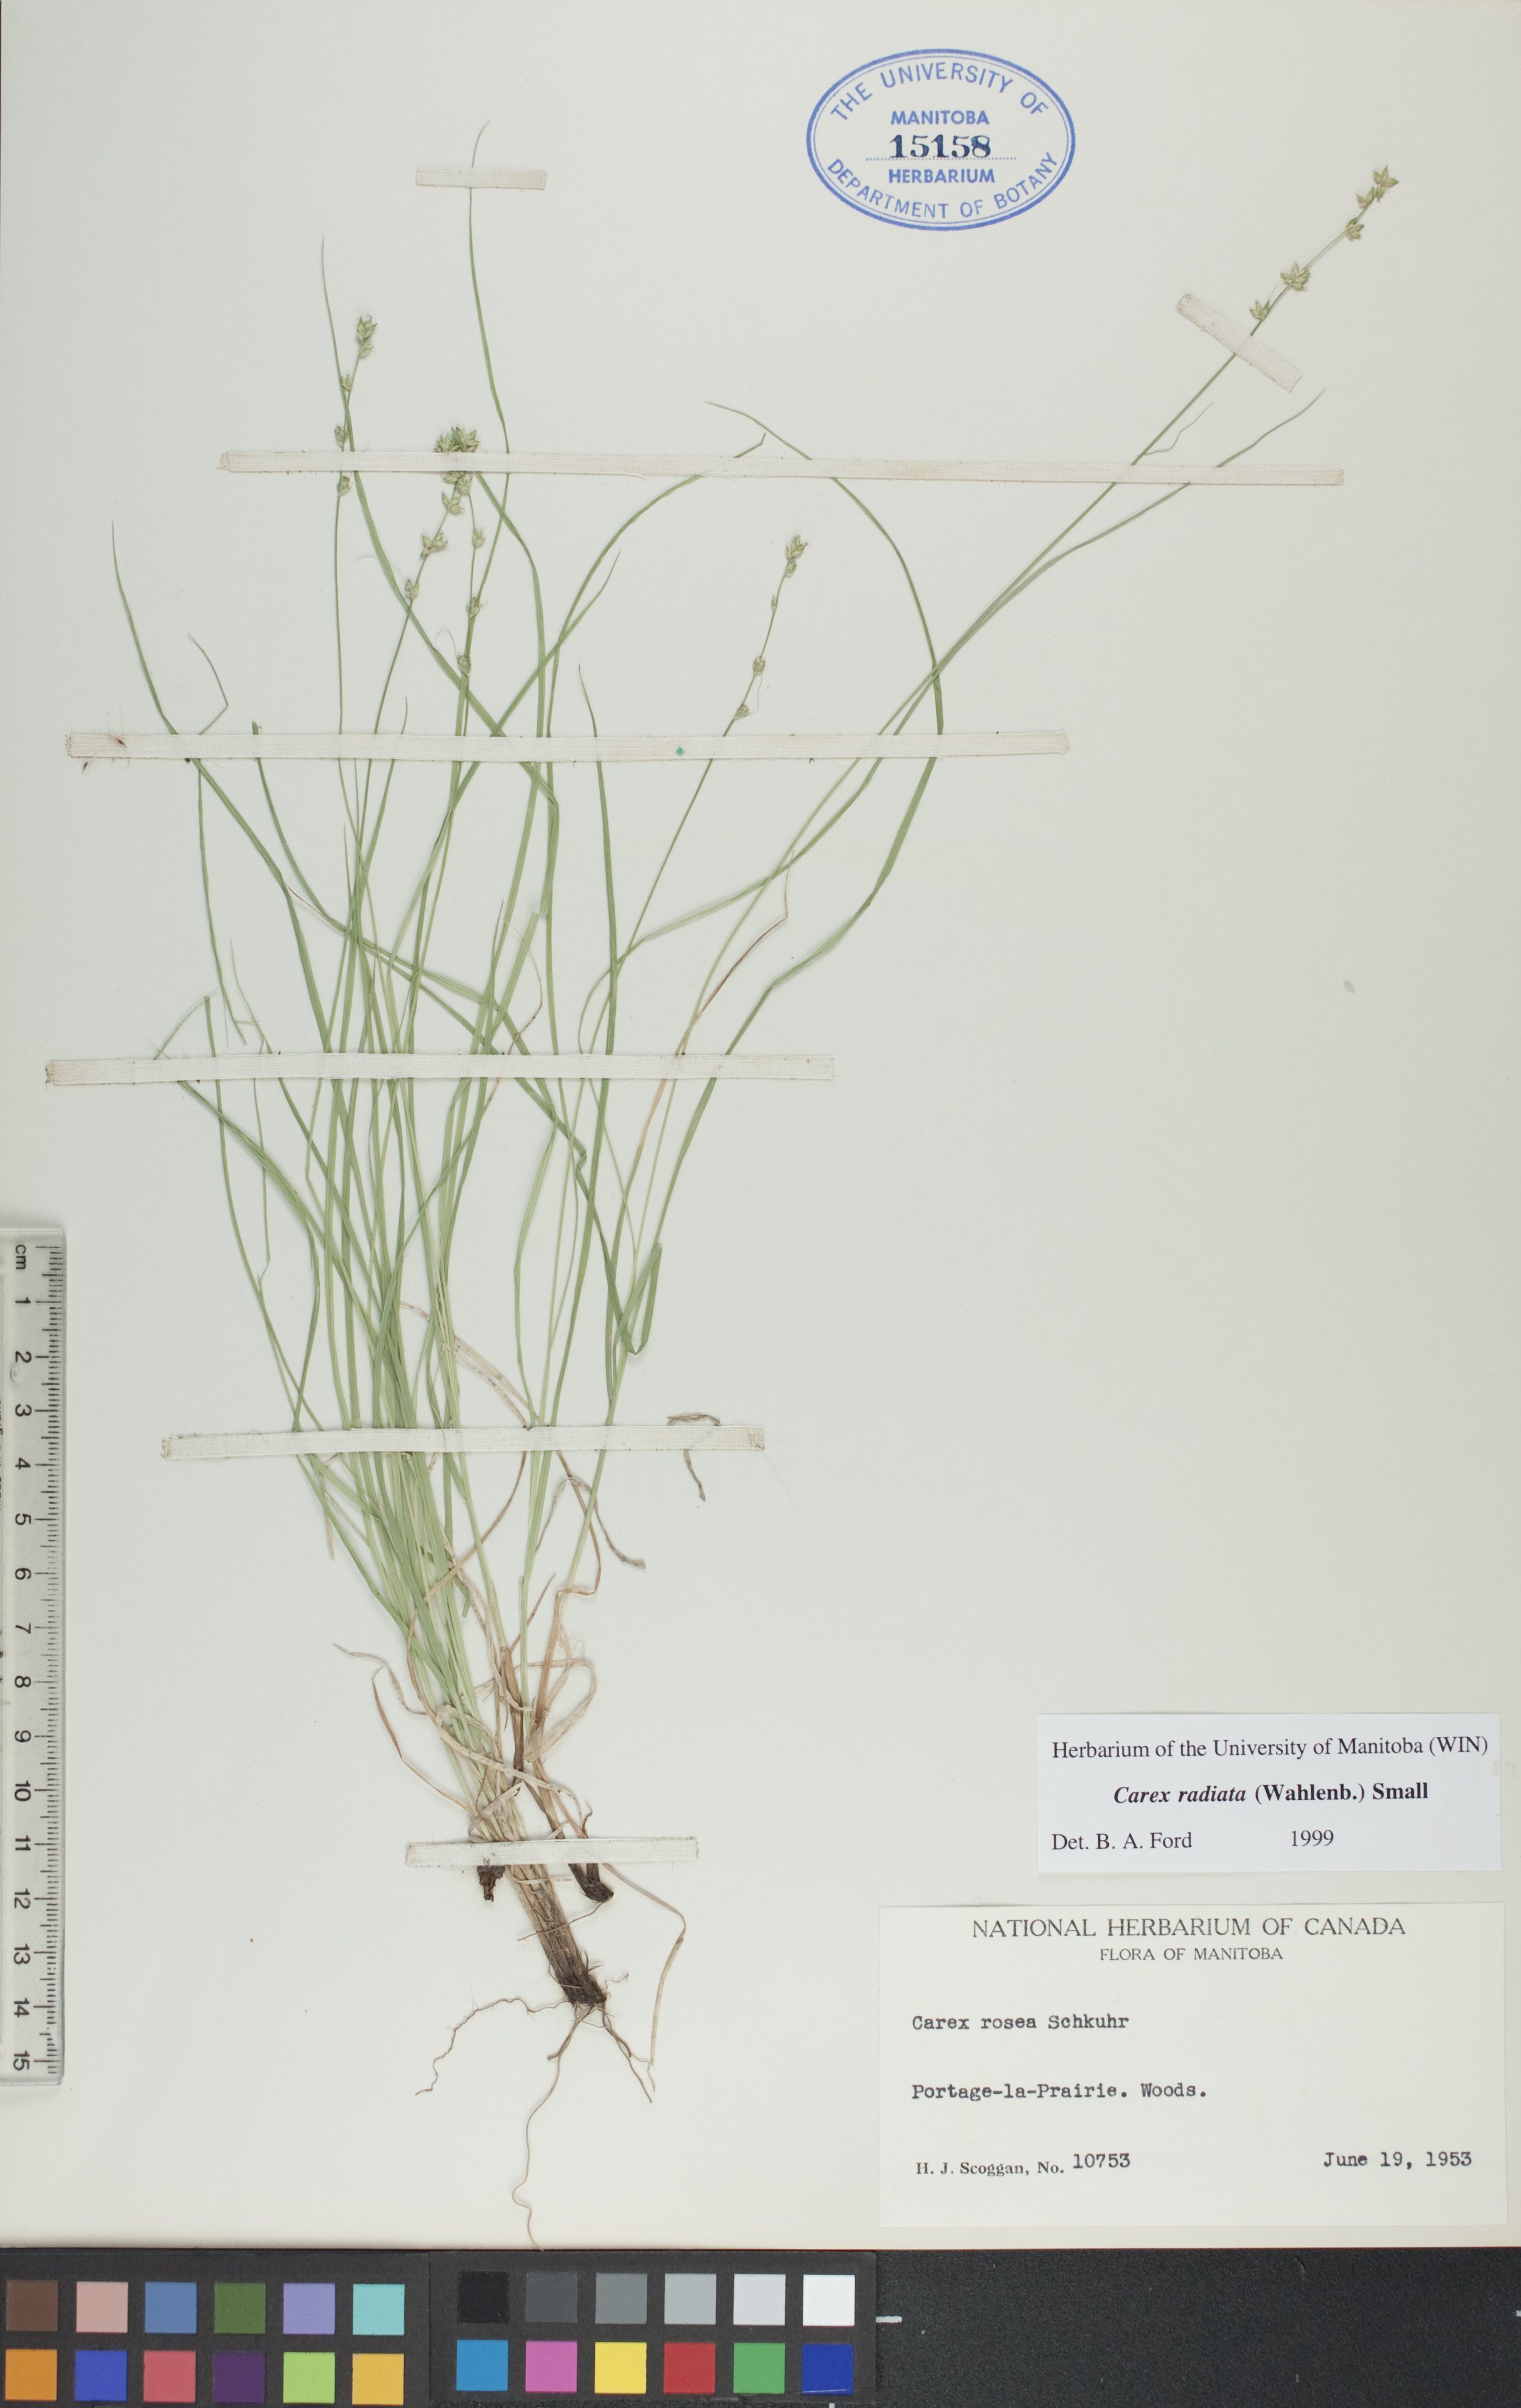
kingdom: Plantae
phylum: Tracheophyta
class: Liliopsida
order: Poales
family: Cyperaceae
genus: Carex
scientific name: Carex radiata
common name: Eastern star sedge
